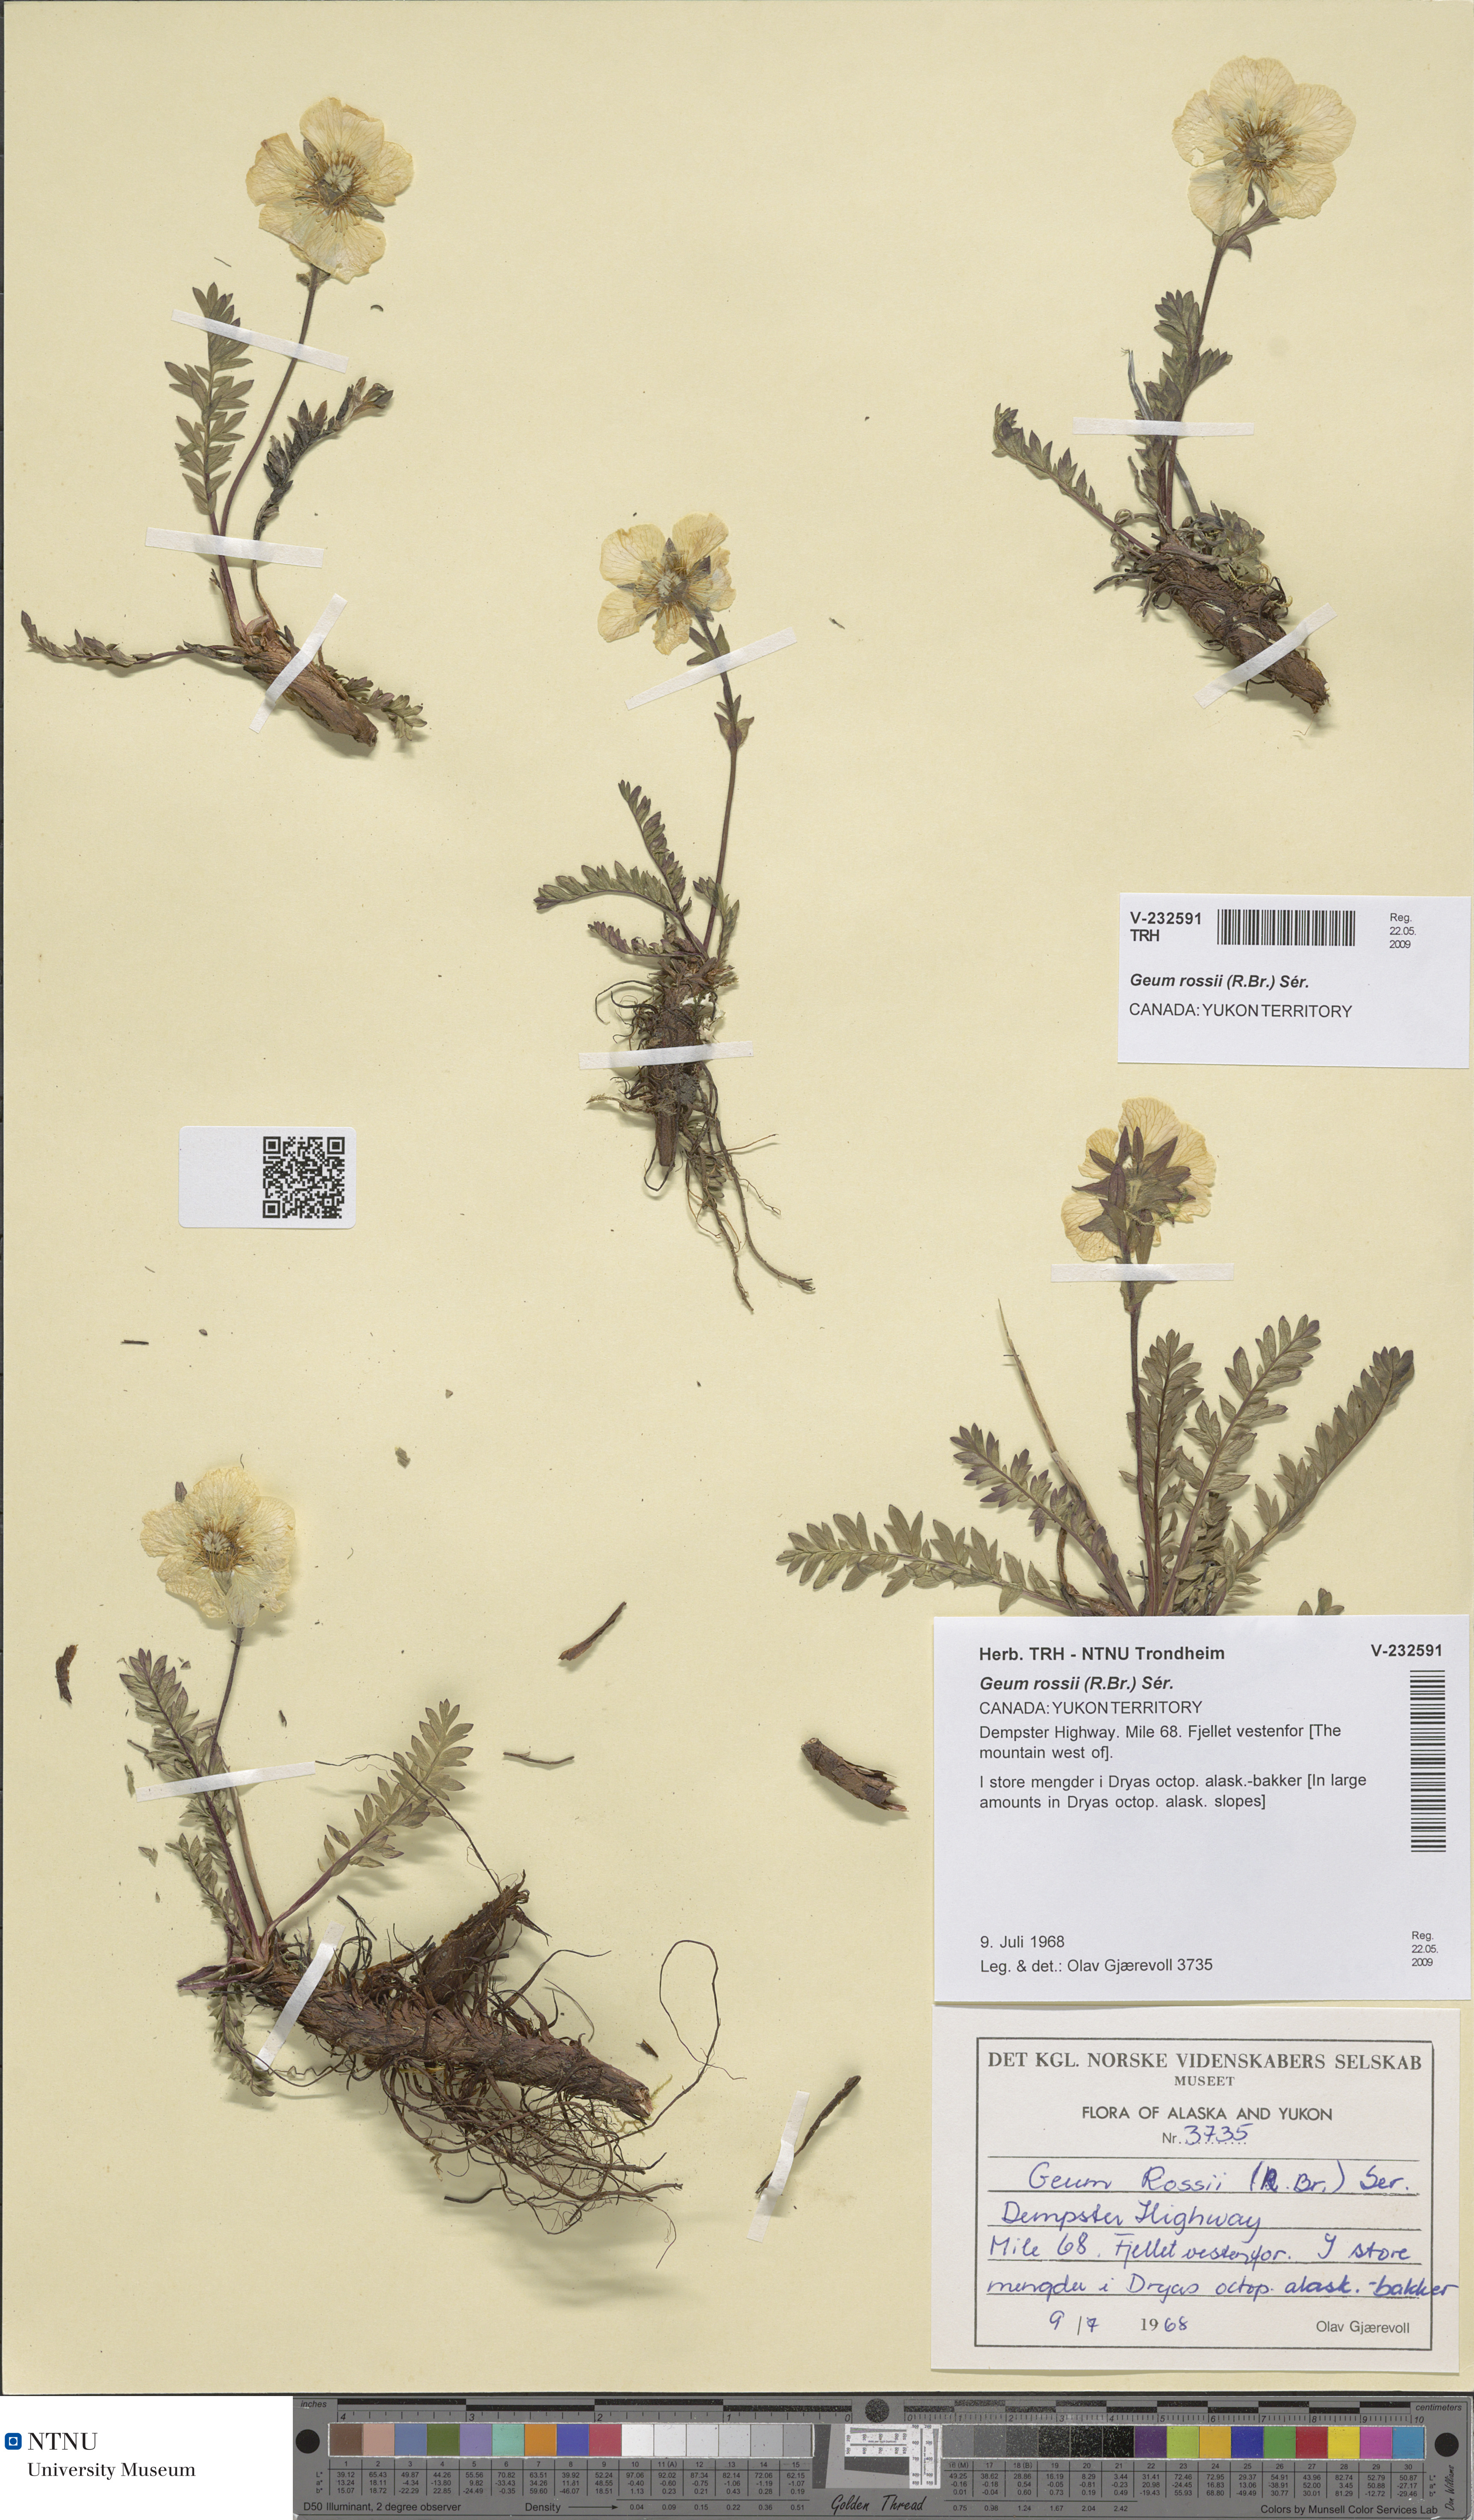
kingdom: Plantae
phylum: Tracheophyta
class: Magnoliopsida
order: Rosales
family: Rosaceae
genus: Geum
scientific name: Geum rossii
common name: Alpine avens
